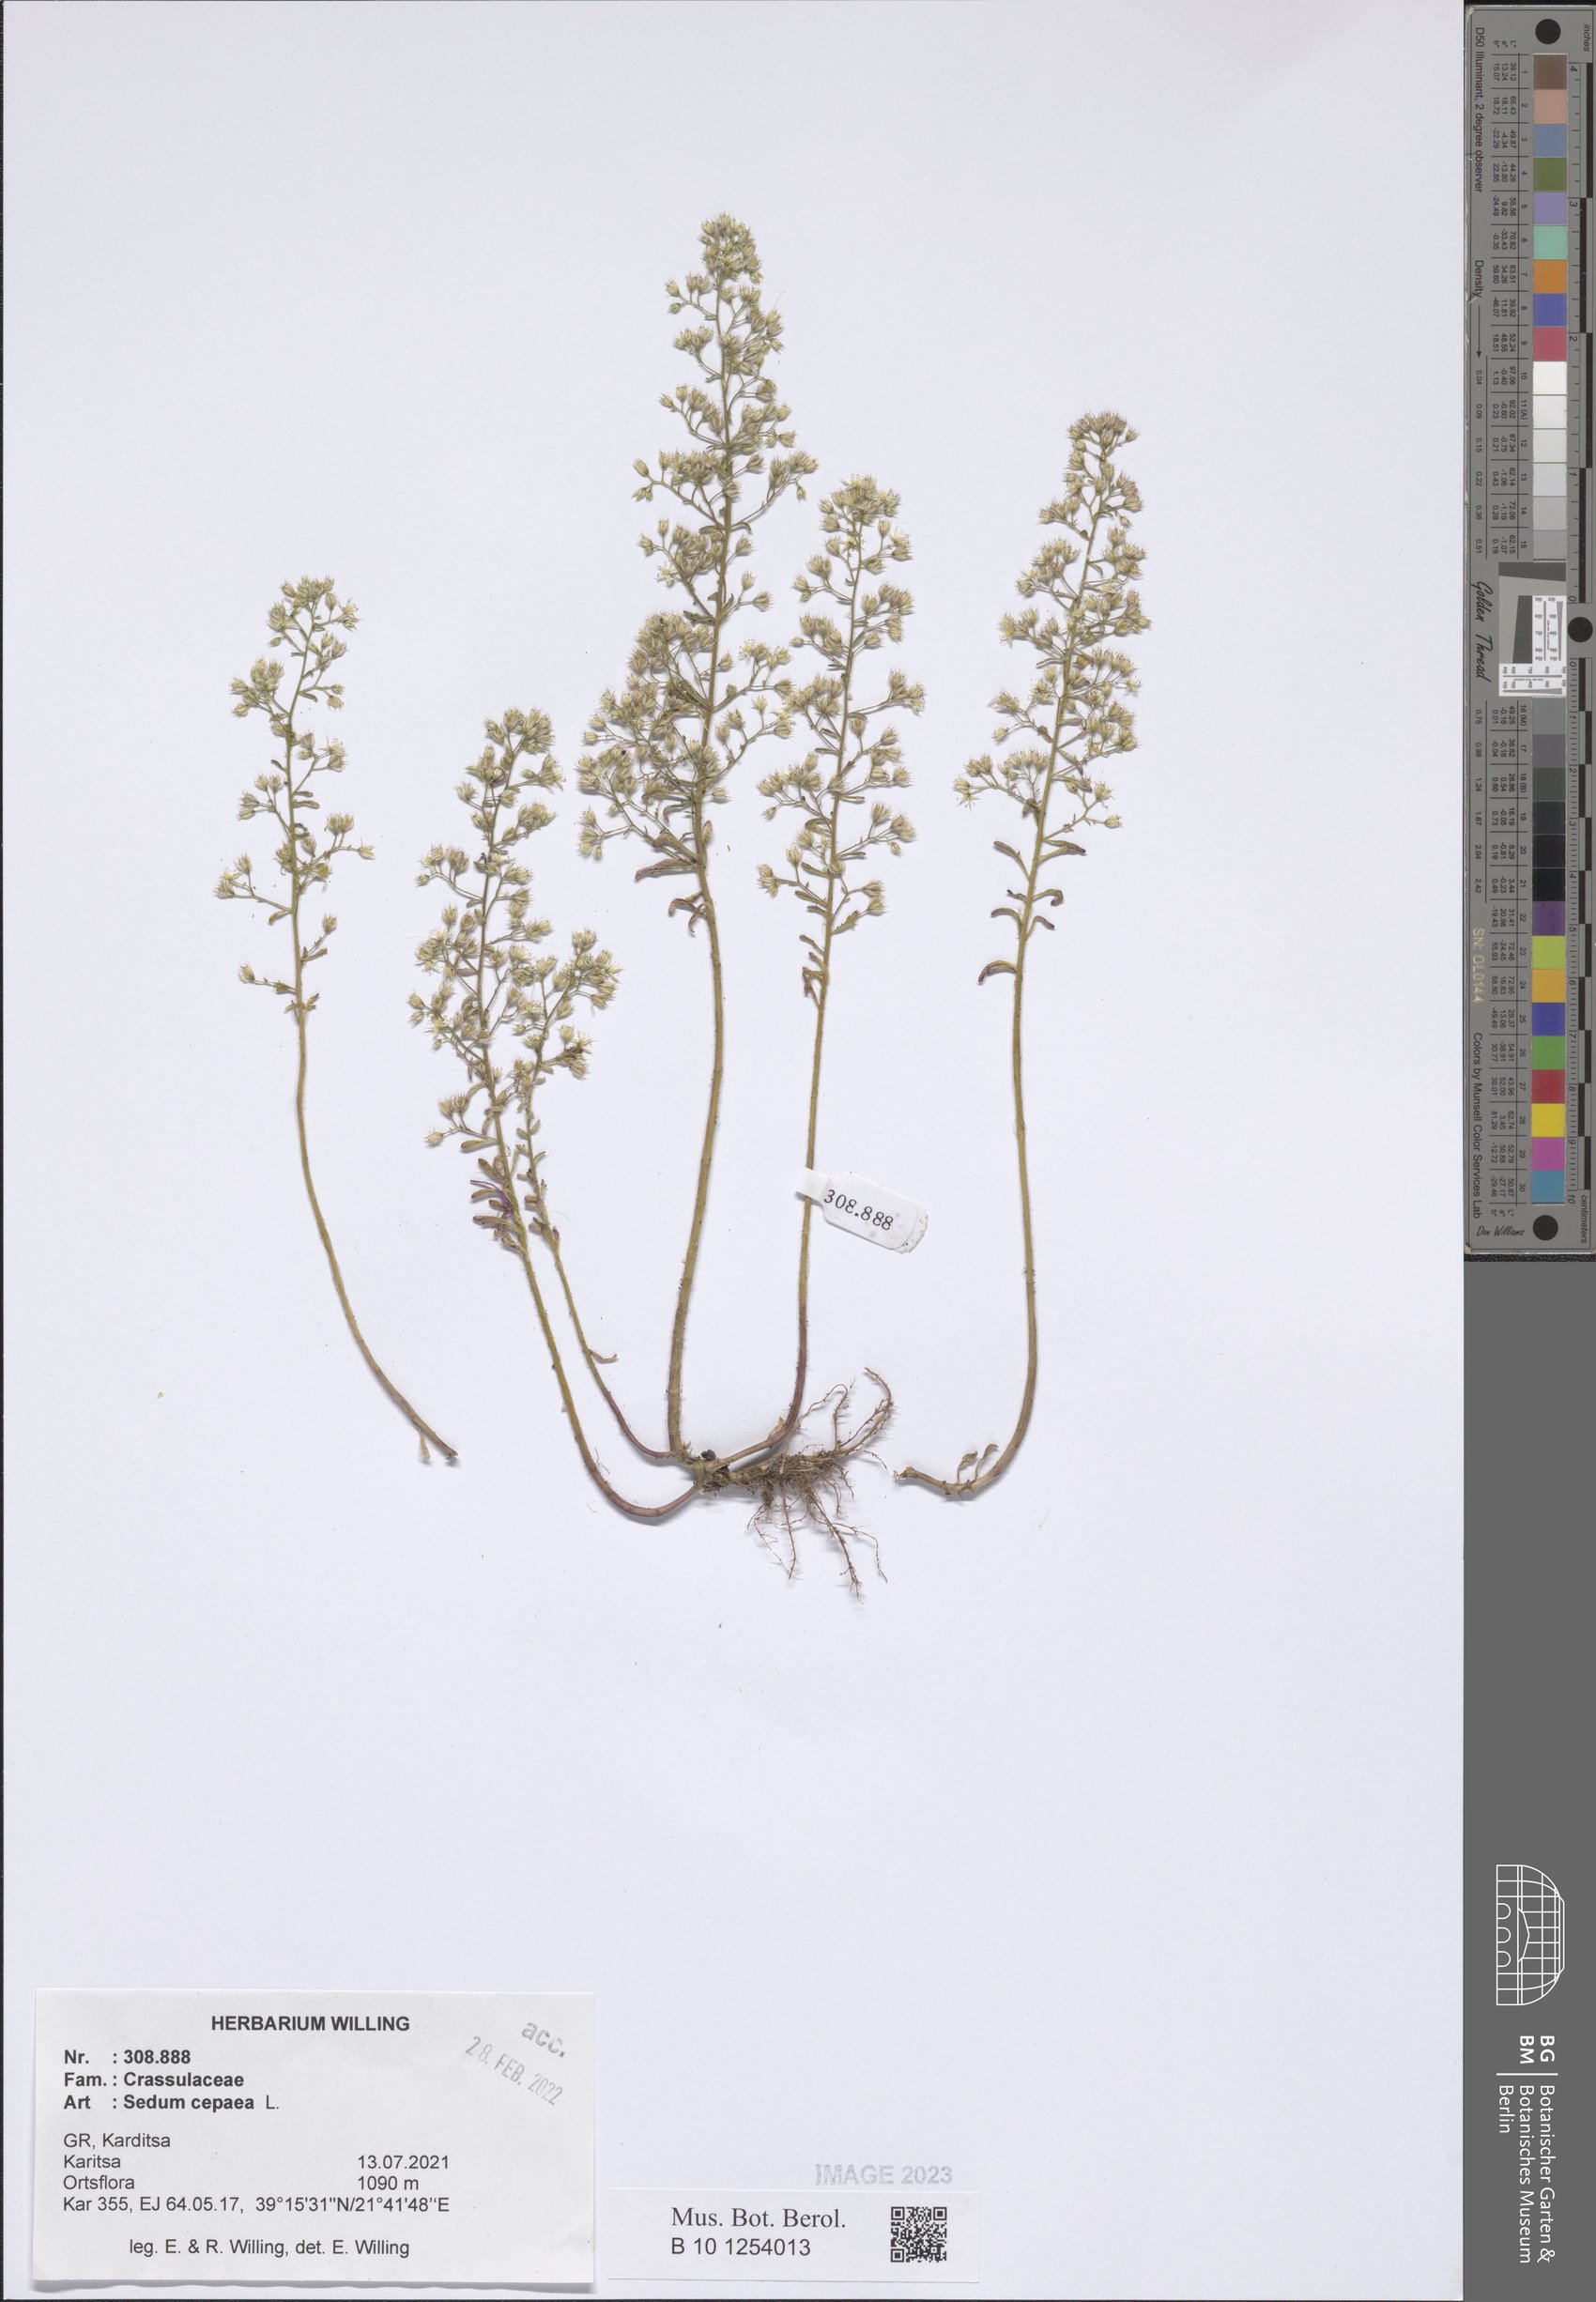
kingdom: Plantae
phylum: Tracheophyta
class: Magnoliopsida
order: Saxifragales
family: Crassulaceae
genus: Sedum
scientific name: Sedum cepaea
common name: Pink stonecrop
